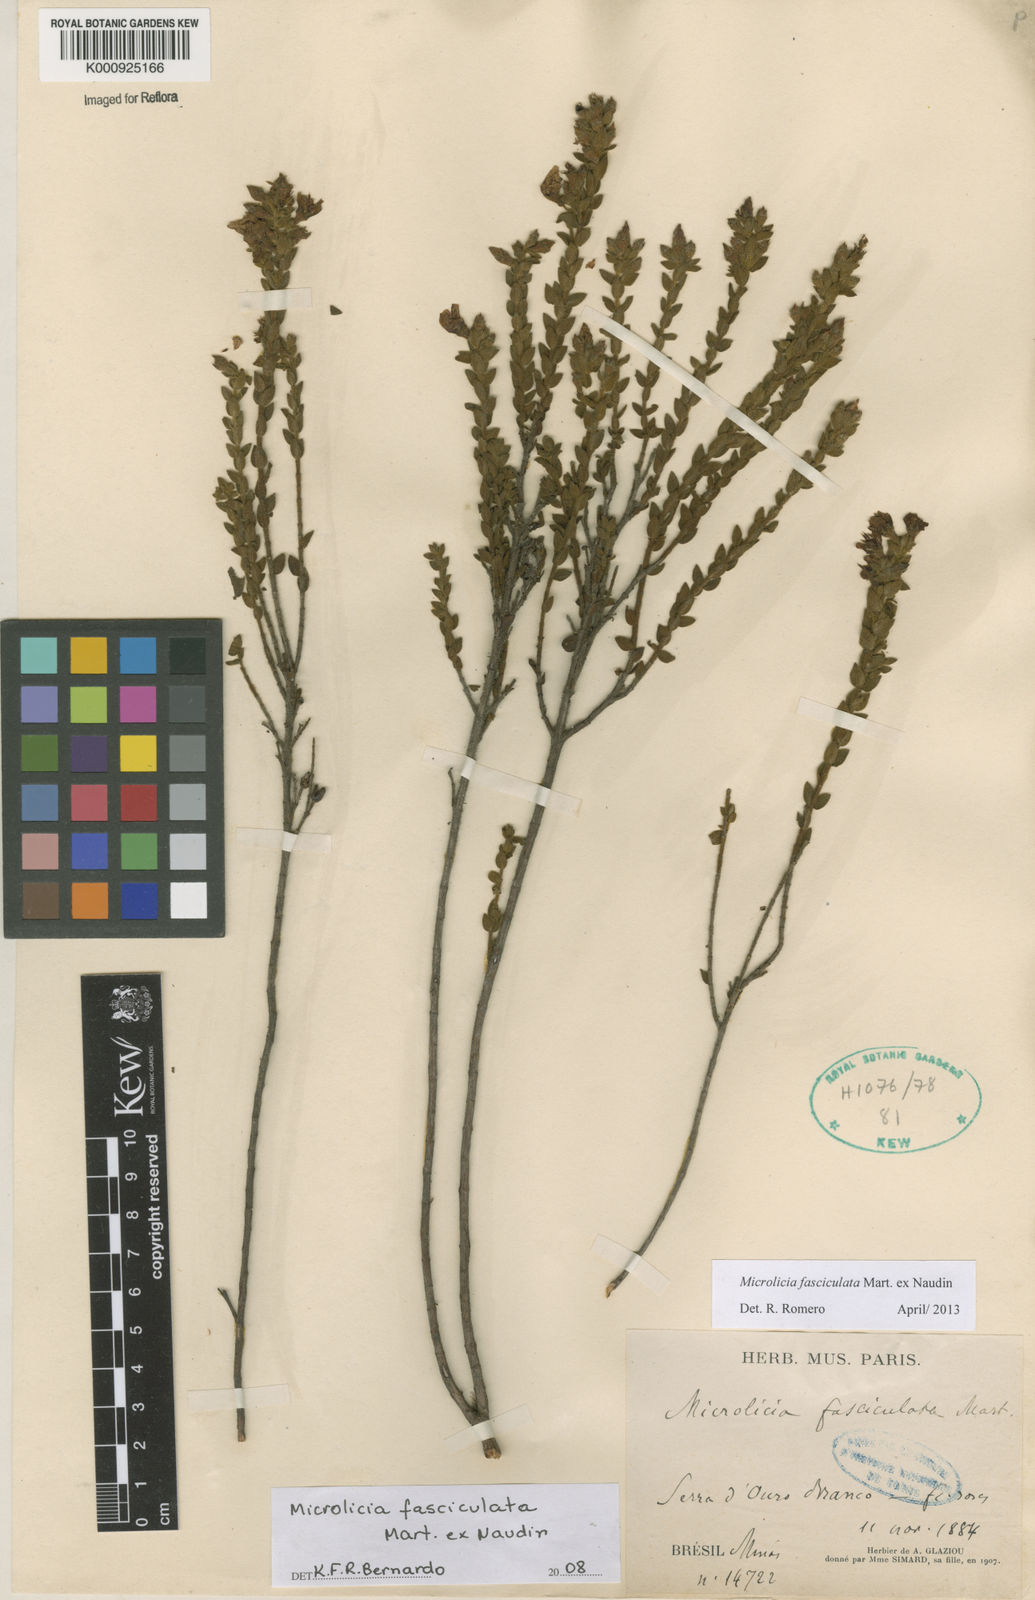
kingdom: Plantae
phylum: Tracheophyta
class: Magnoliopsida
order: Myrtales
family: Melastomataceae
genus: Microlicia
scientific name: Microlicia fasciculata
